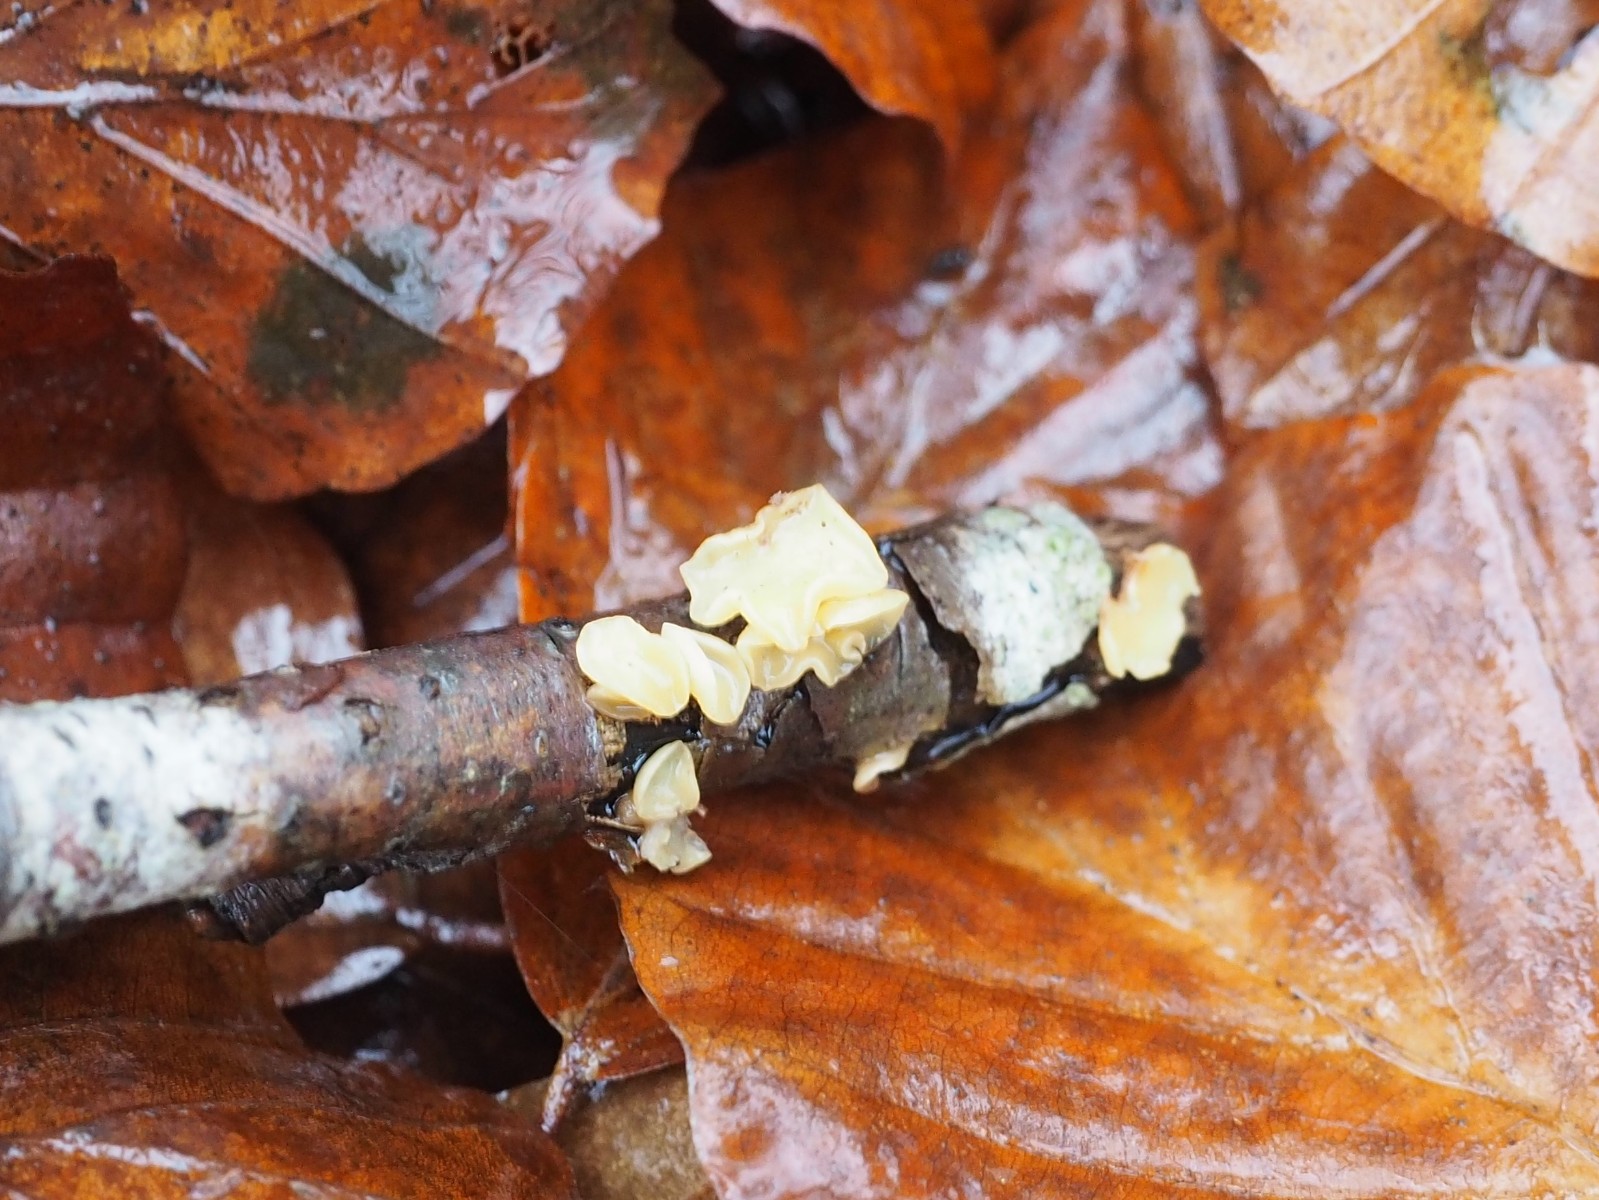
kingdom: Fungi
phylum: Ascomycota
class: Leotiomycetes
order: Helotiales
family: Helotiaceae
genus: Hymenoscyphus
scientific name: Hymenoscyphus serotinus
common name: krumsporet stilkskive
